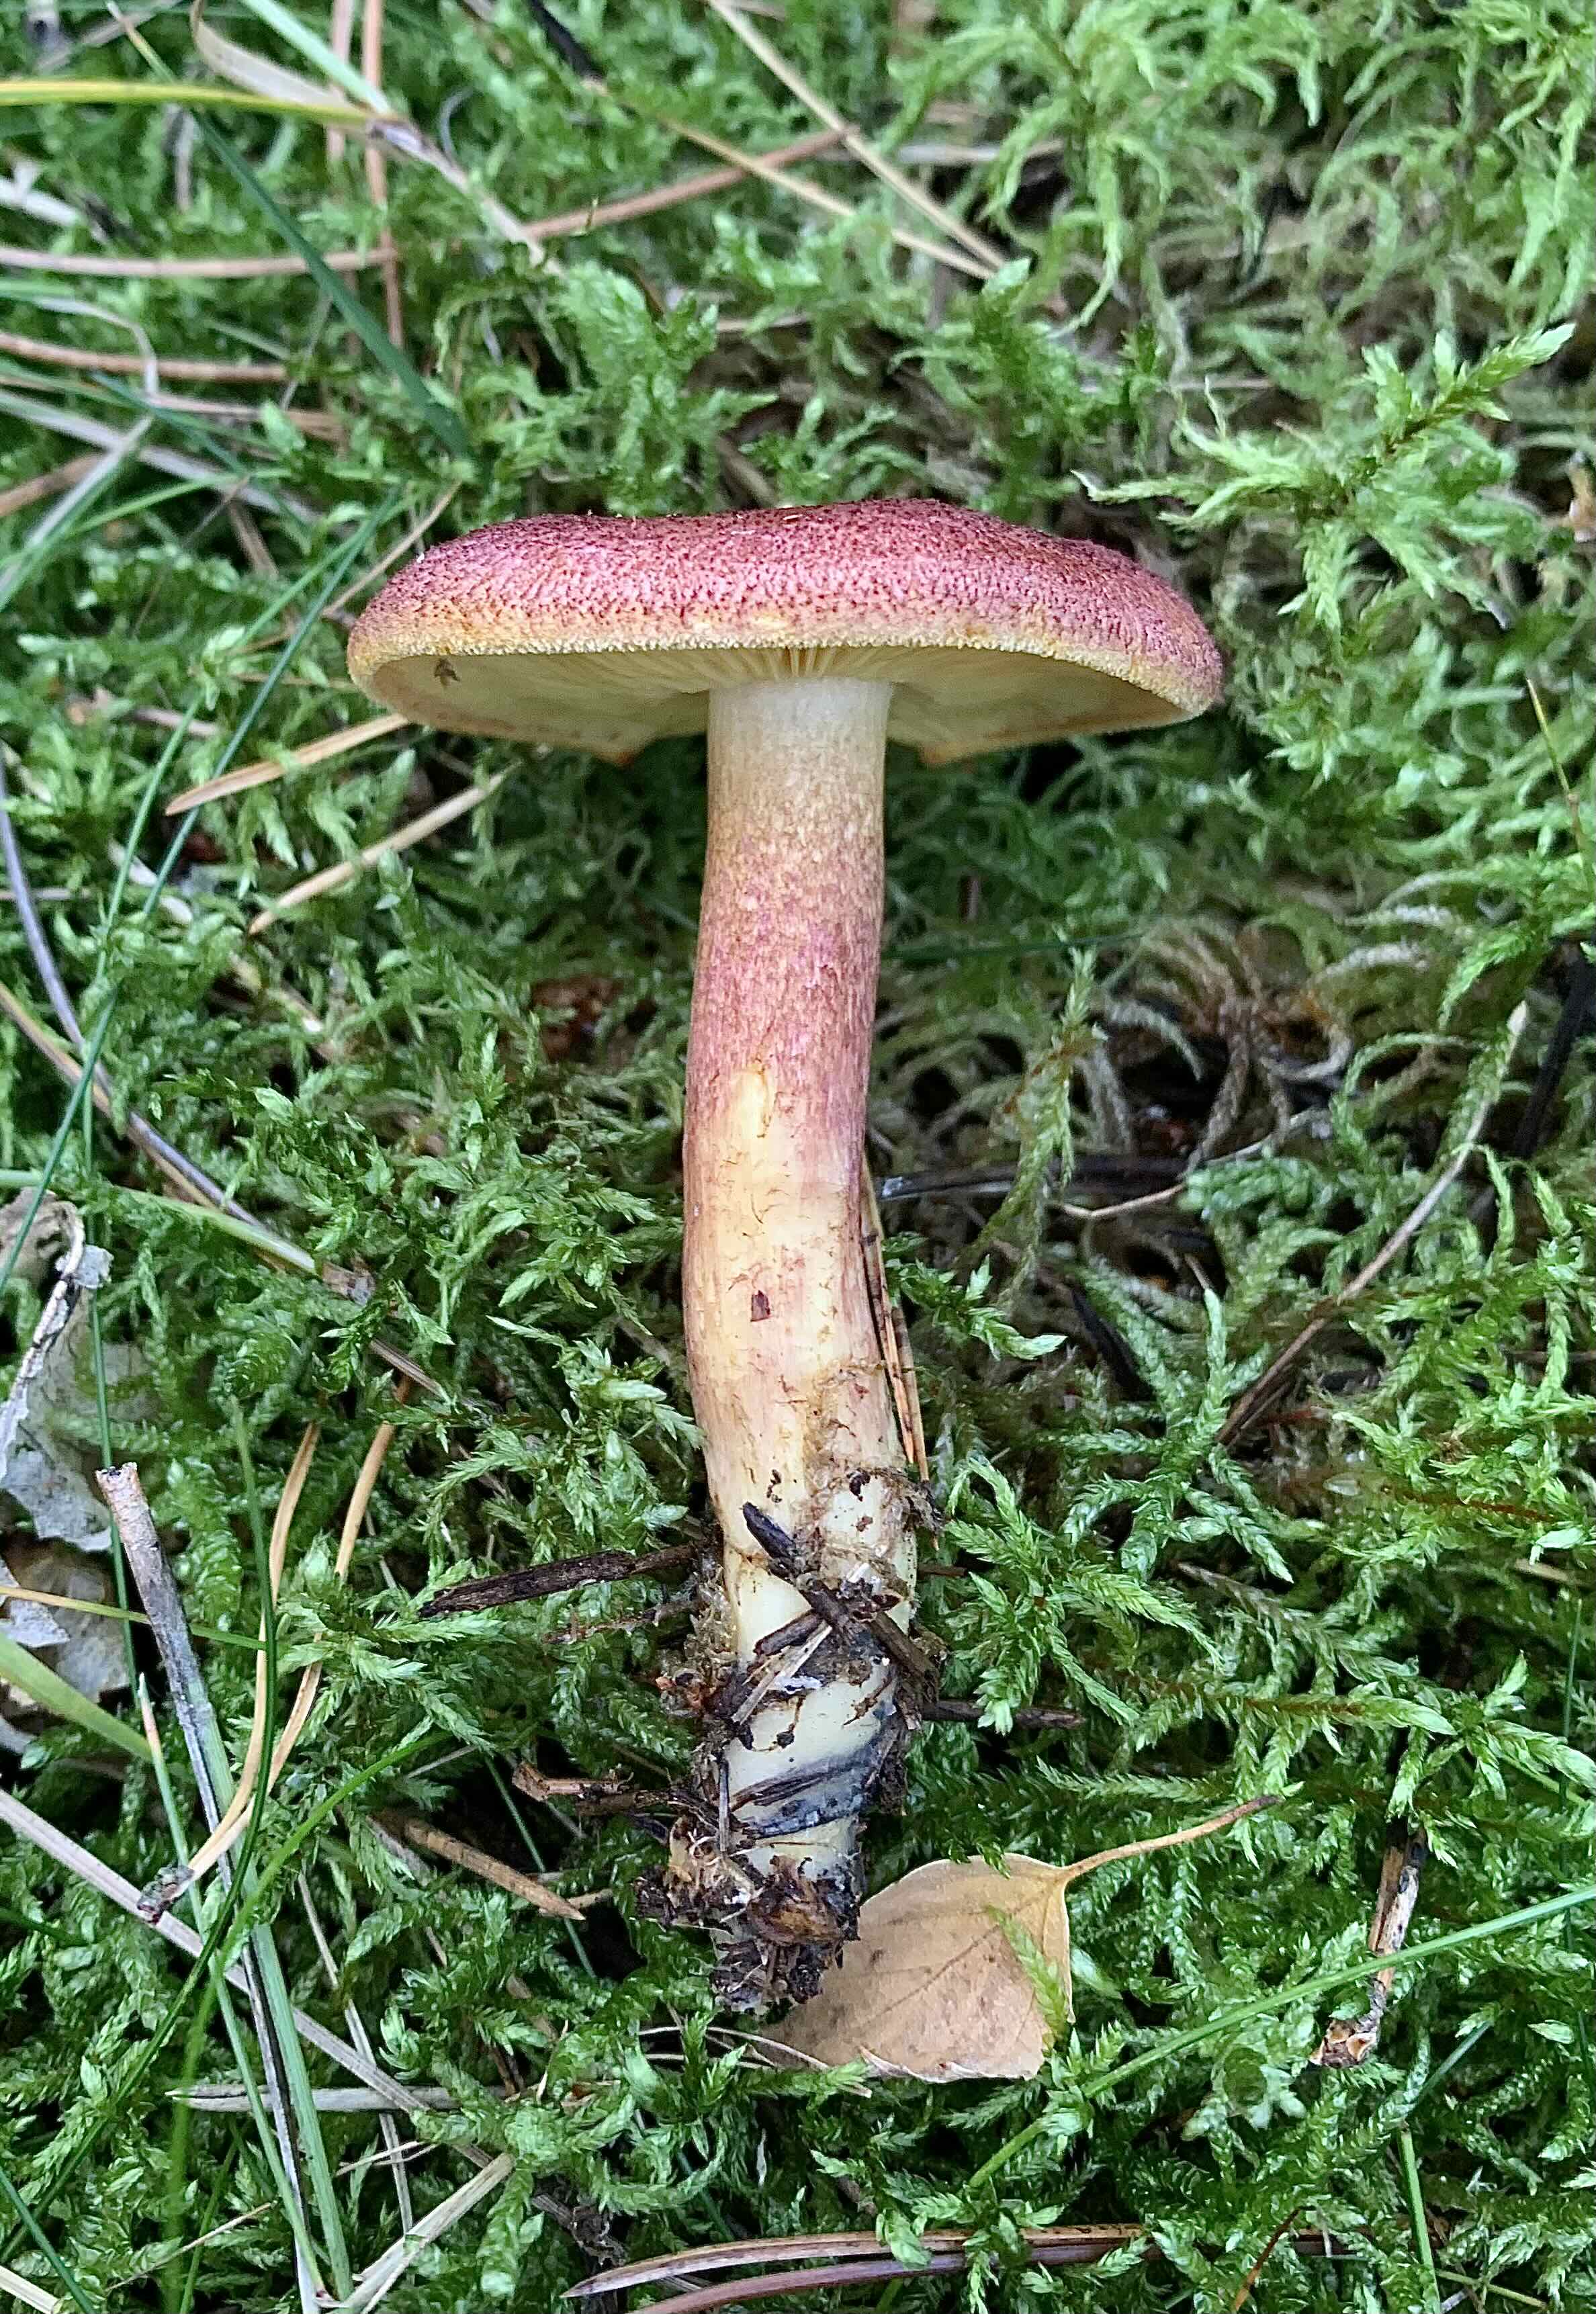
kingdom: Fungi
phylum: Basidiomycota
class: Agaricomycetes
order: Agaricales
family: Tricholomataceae
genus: Tricholomopsis
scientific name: Tricholomopsis rutilans
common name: purpur-væbnerhat
